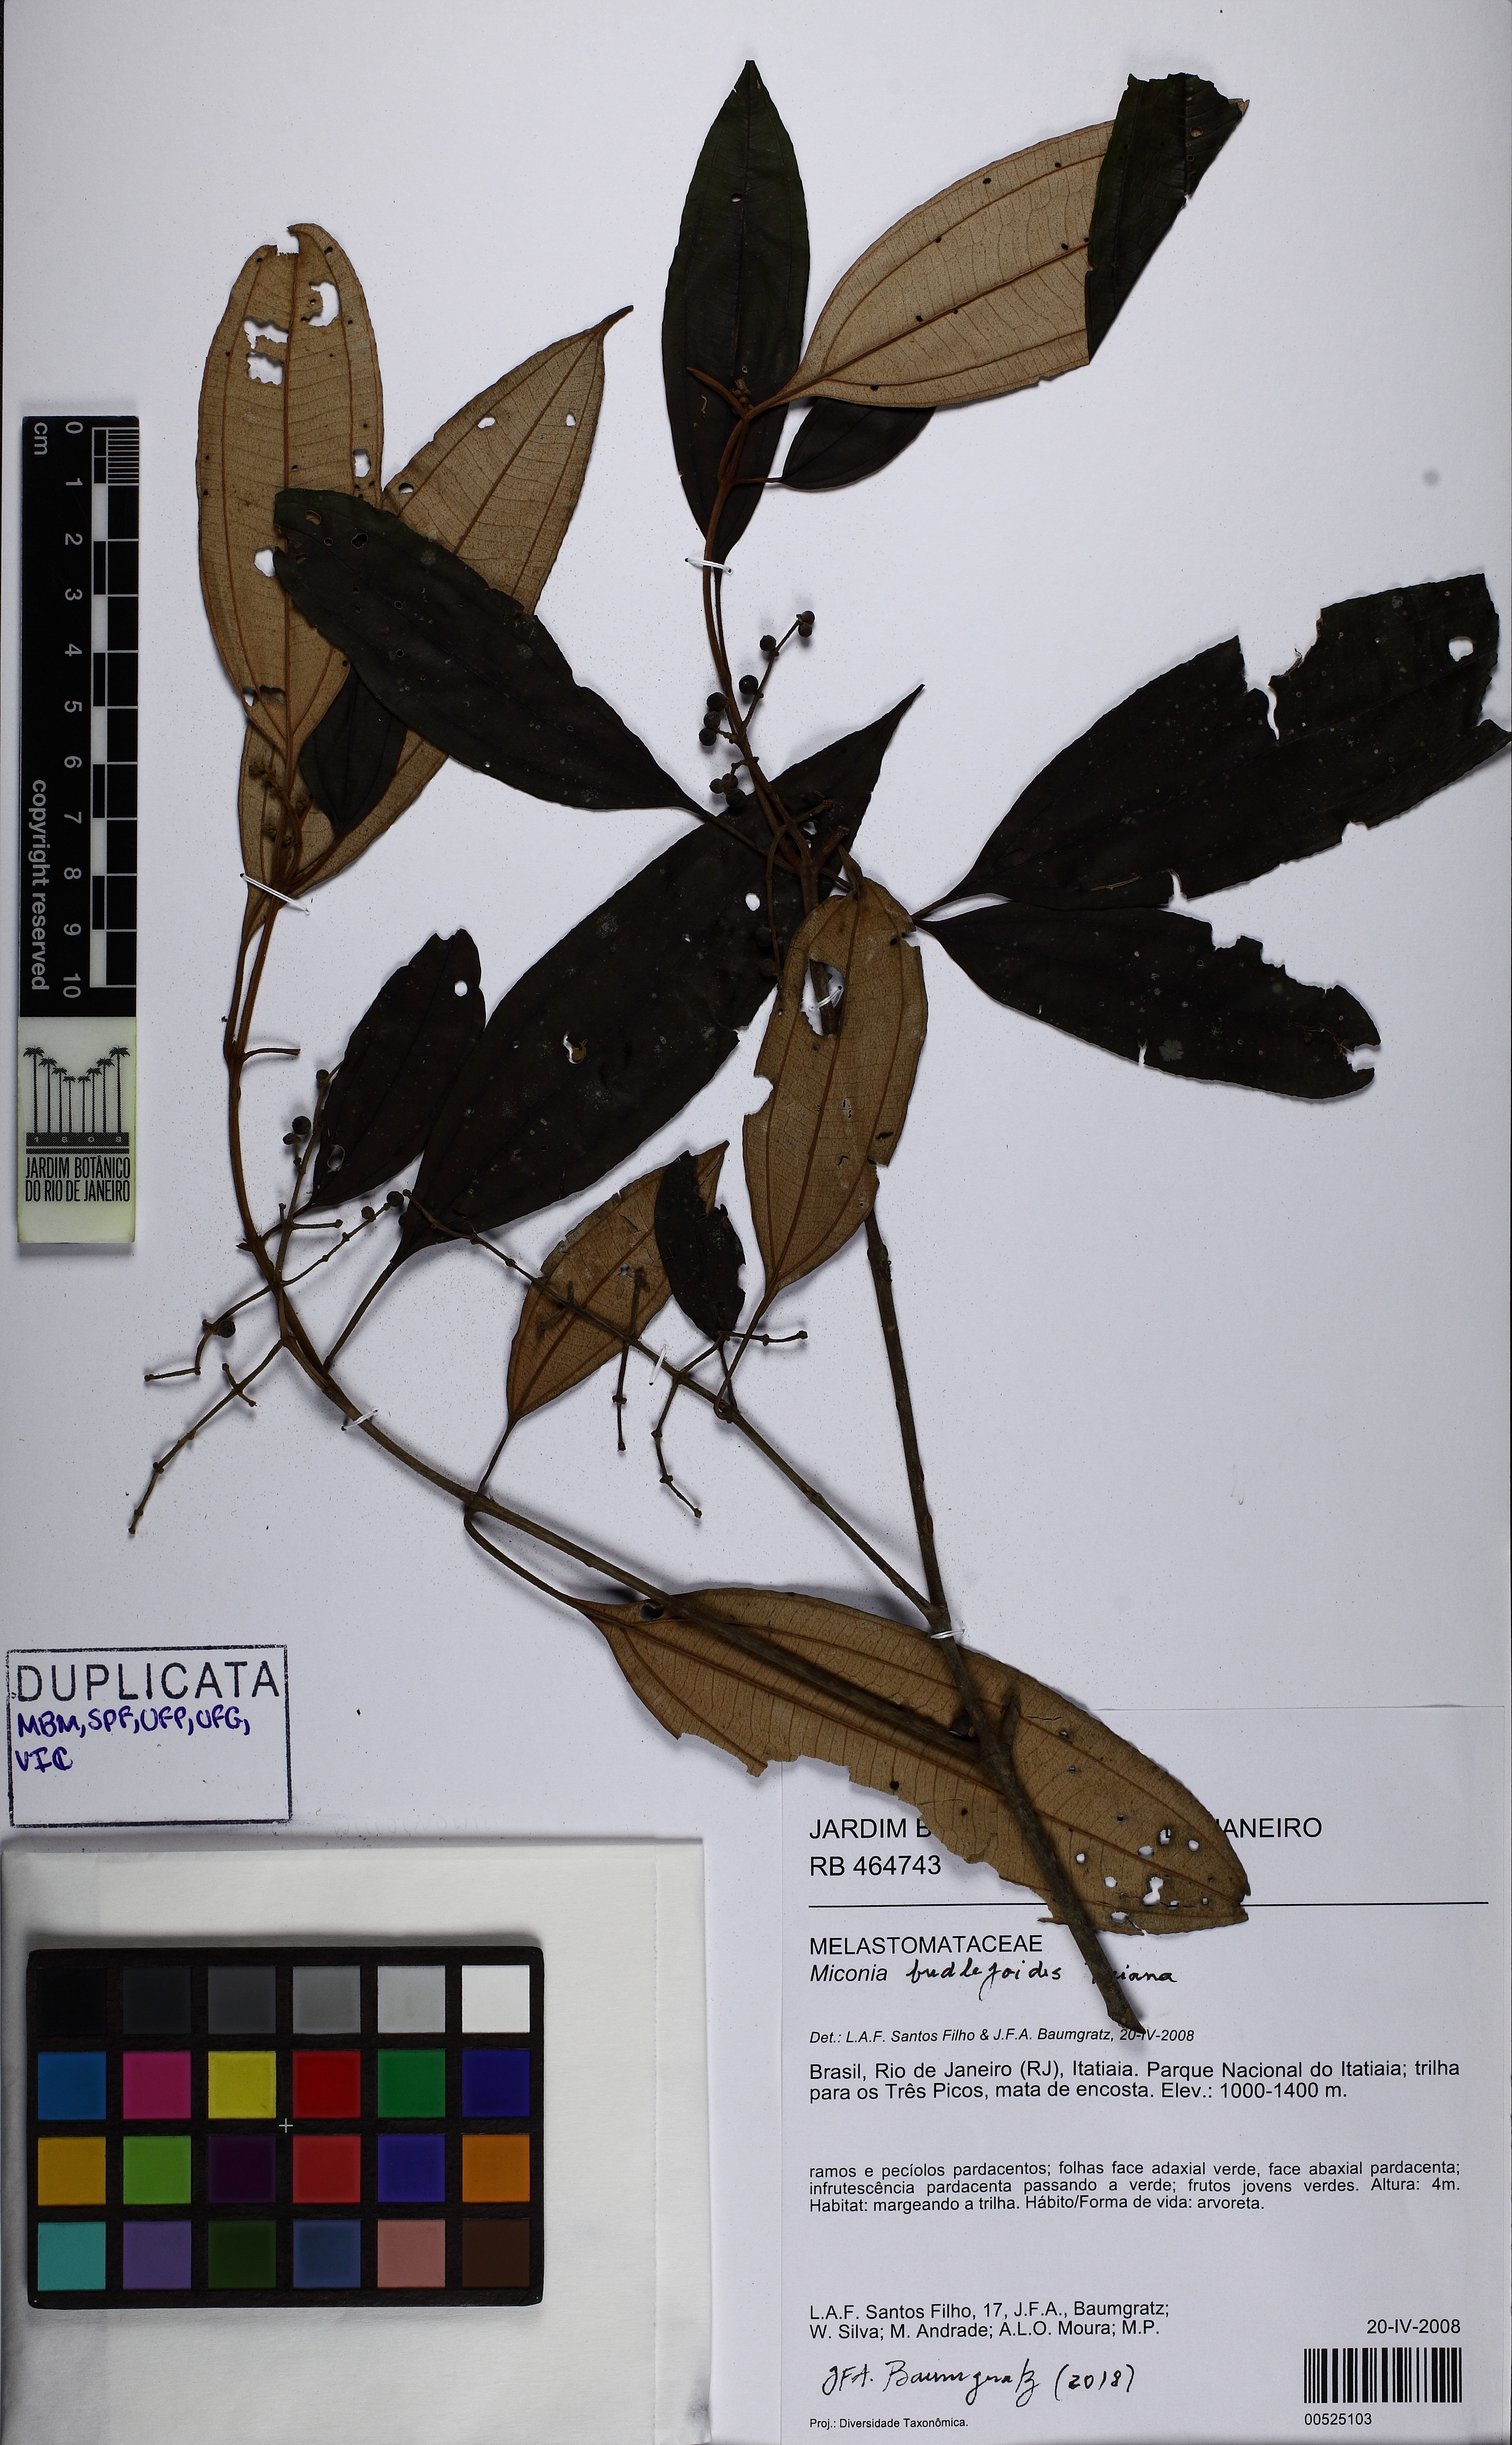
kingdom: Plantae
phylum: Tracheophyta
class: Magnoliopsida
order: Myrtales
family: Melastomataceae
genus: Miconia
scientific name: Miconia buddlejoides
